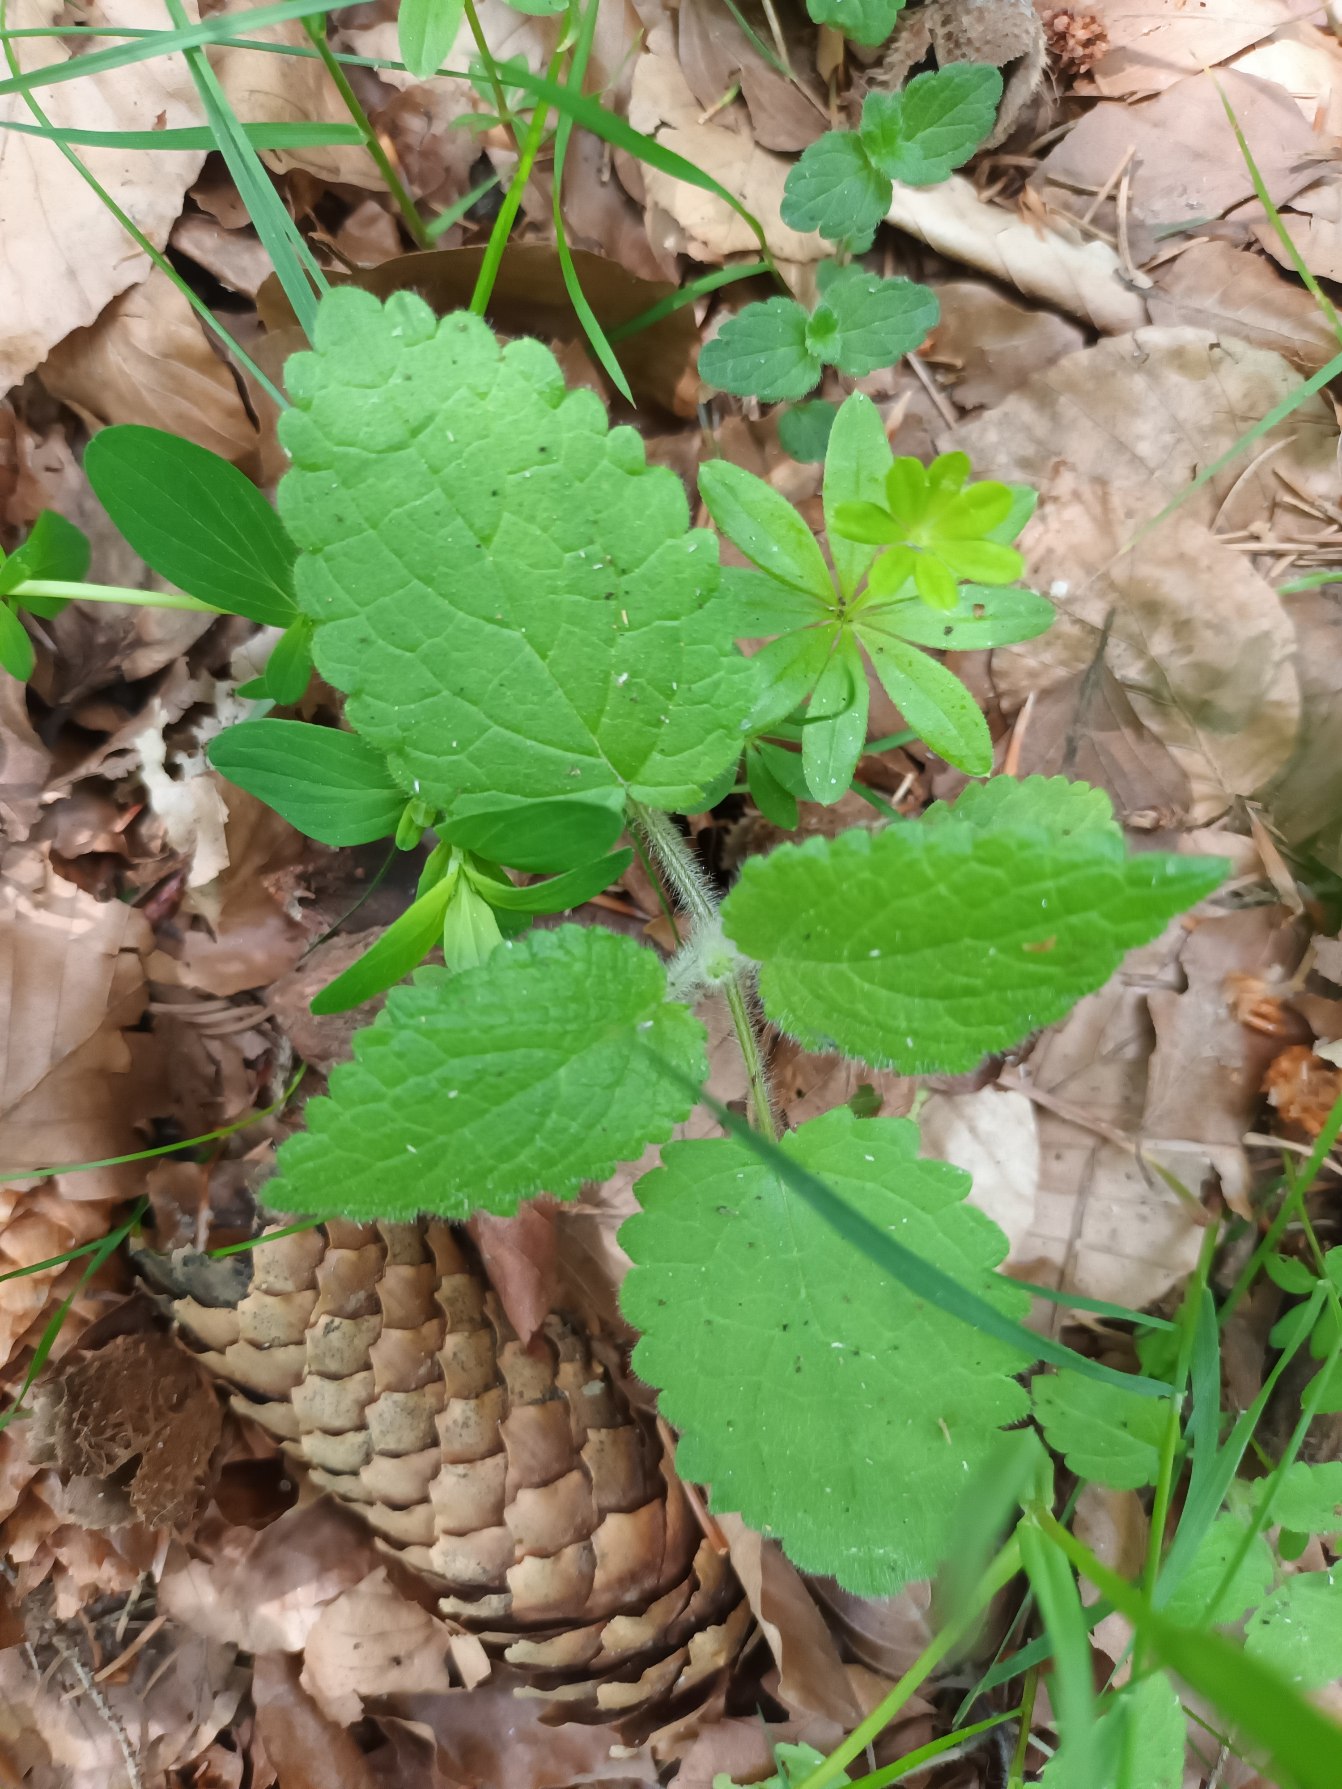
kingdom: Plantae
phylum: Tracheophyta
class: Magnoliopsida
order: Lamiales
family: Lamiaceae
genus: Stachys
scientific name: Stachys sylvatica
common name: Skov-galtetand
